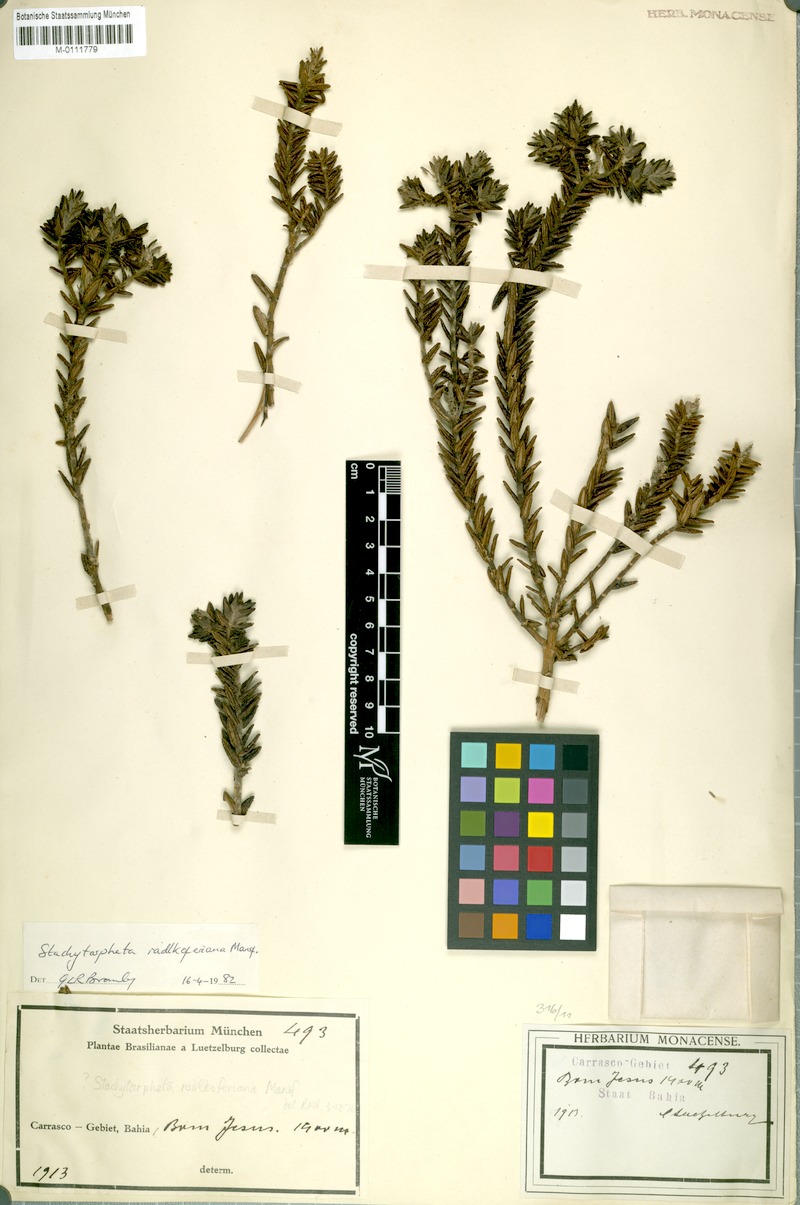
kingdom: Plantae
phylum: Tracheophyta
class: Magnoliopsida
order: Lamiales
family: Verbenaceae
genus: Stachytarpheta
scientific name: Stachytarpheta radlkoferiana
